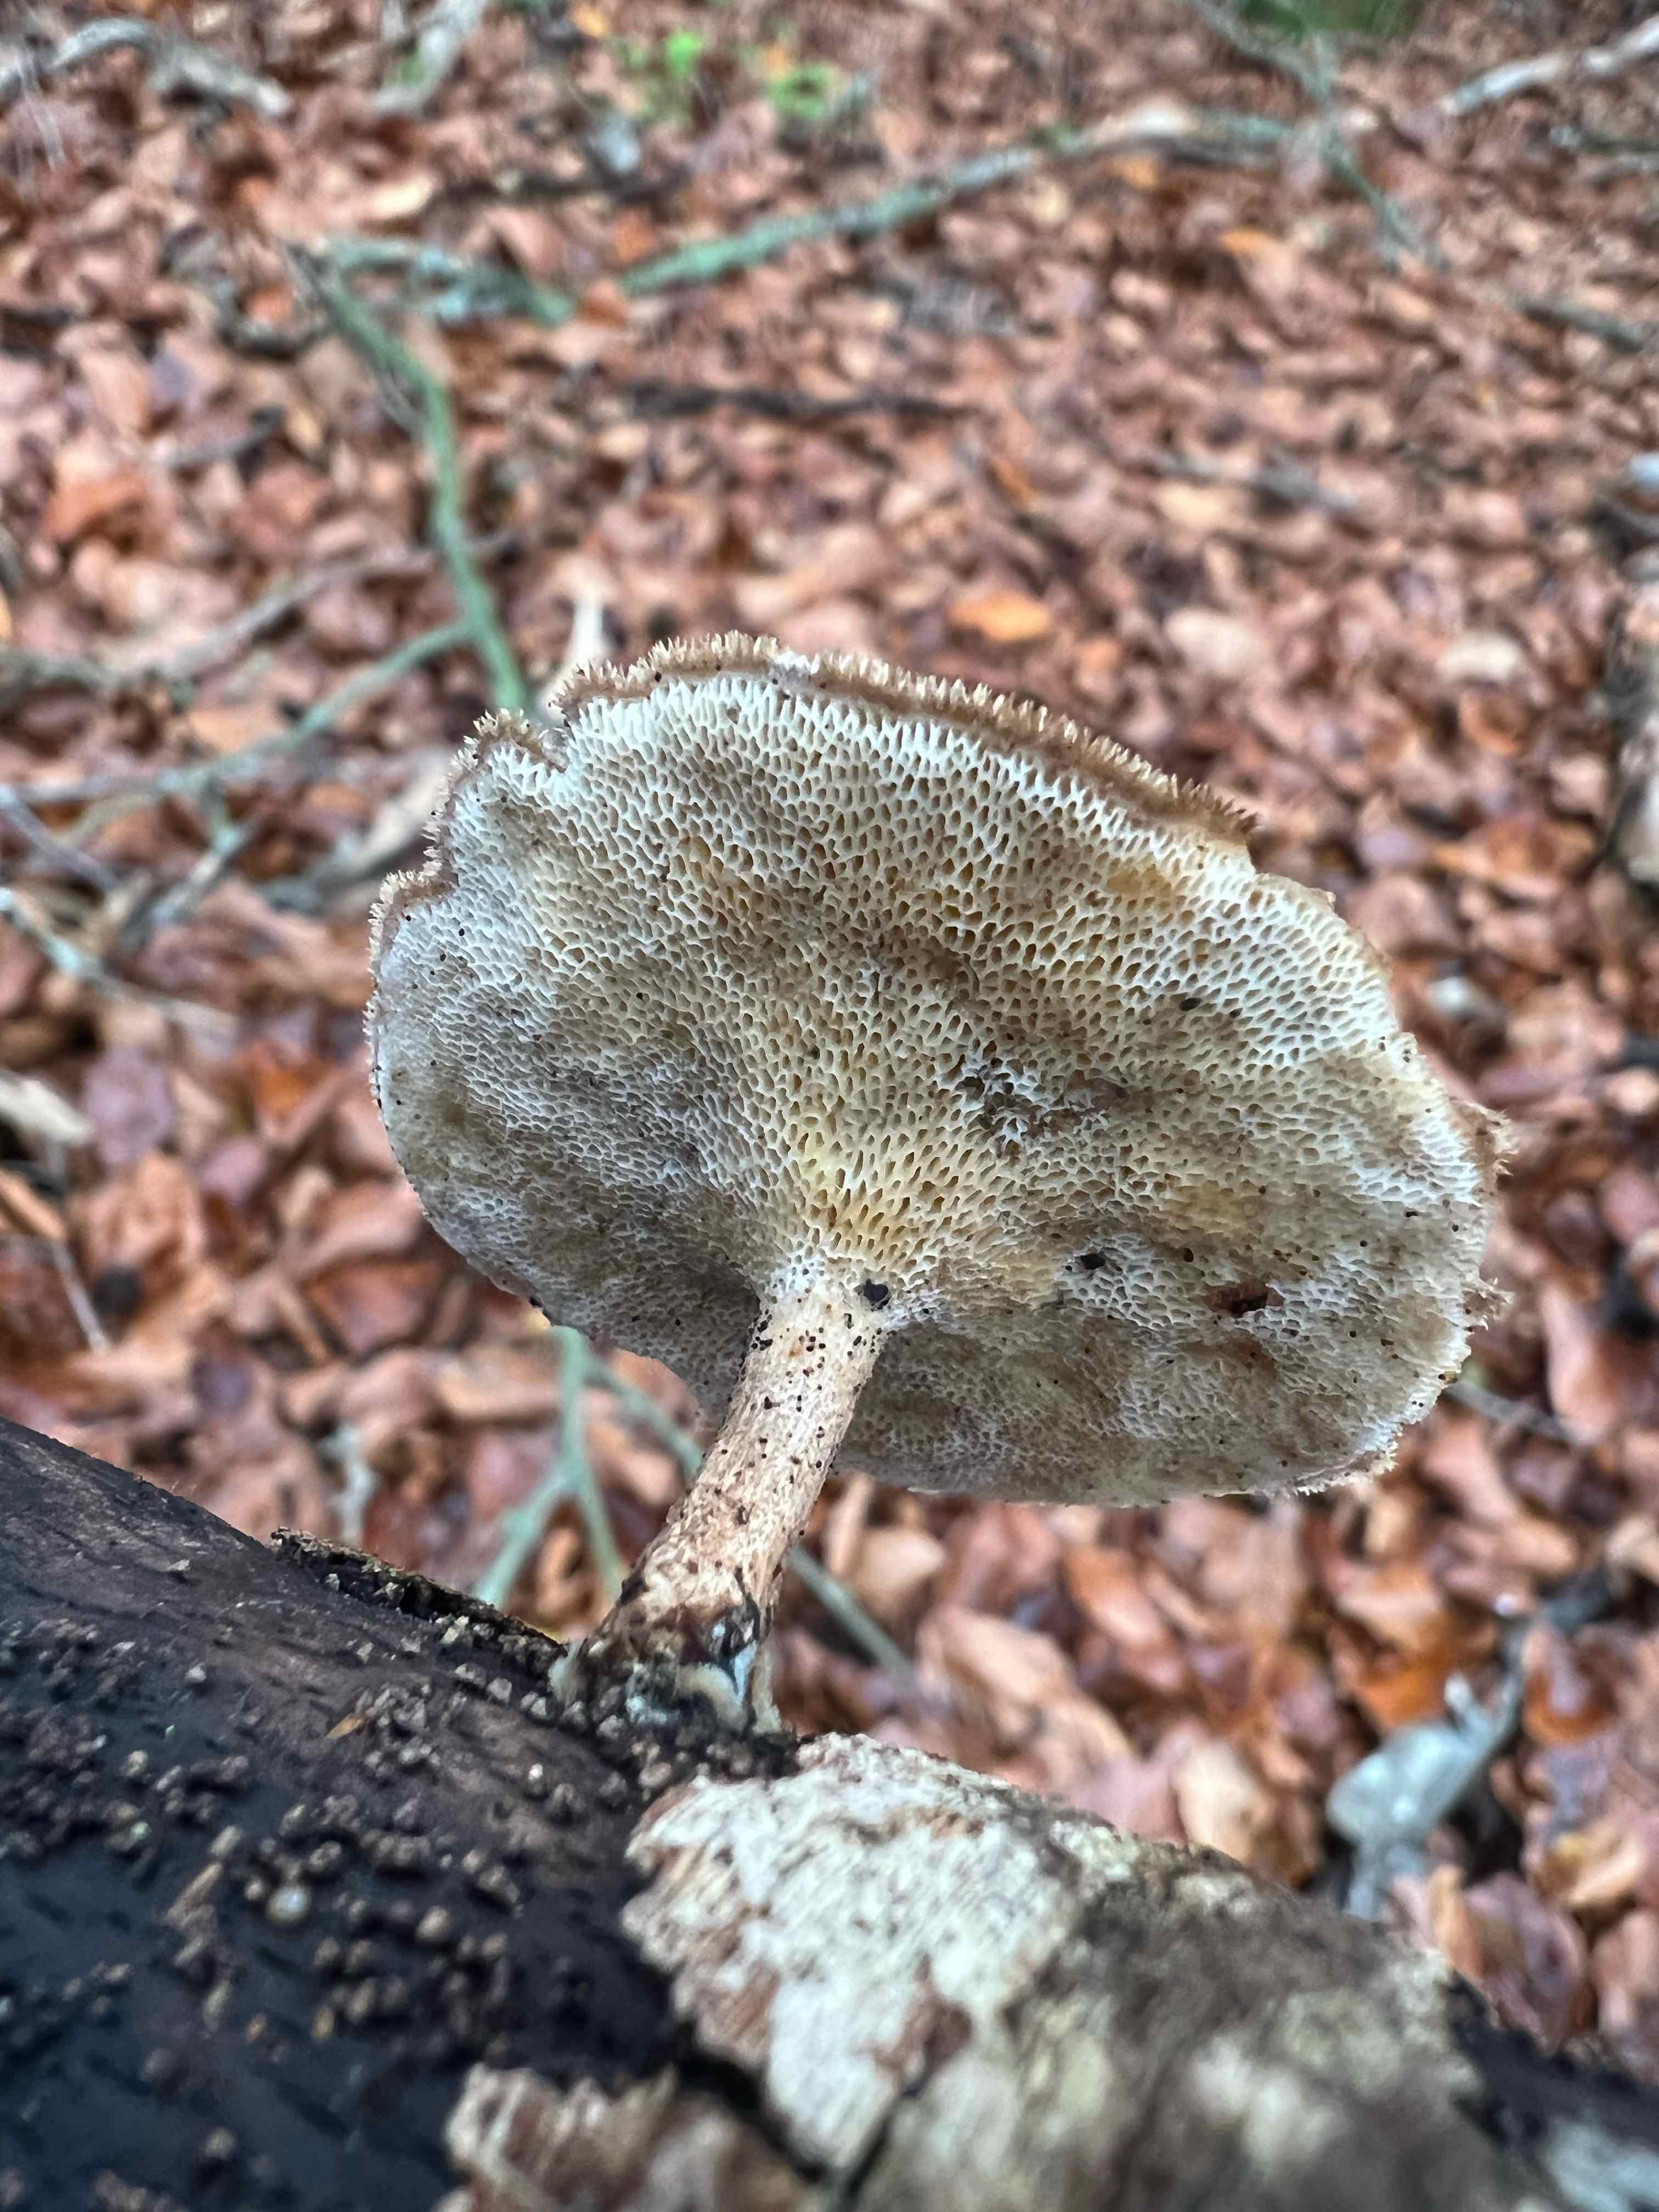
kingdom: Fungi
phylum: Basidiomycota
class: Agaricomycetes
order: Polyporales
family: Polyporaceae
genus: Lentinus
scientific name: Lentinus brumalis
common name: vinter-stilkporesvamp
